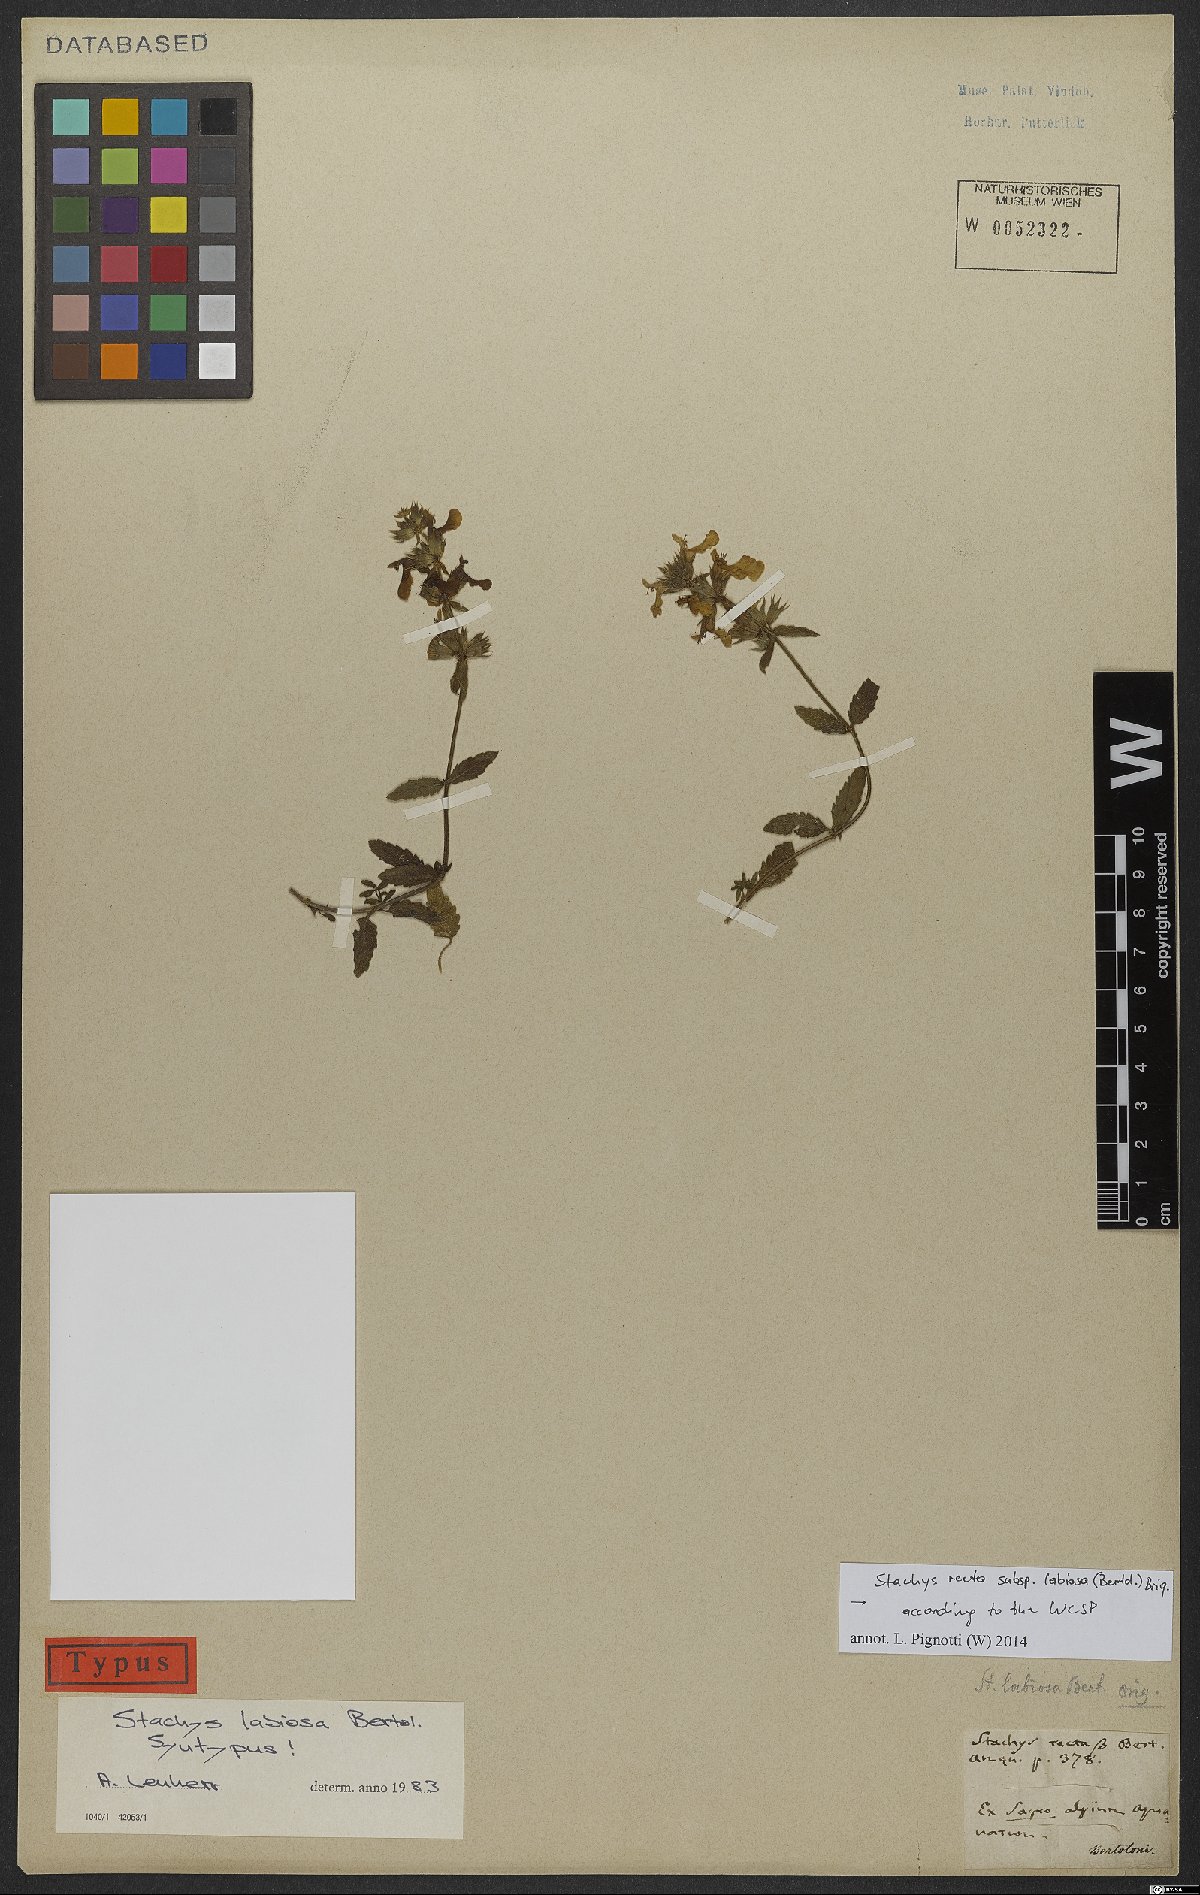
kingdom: Plantae
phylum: Tracheophyta
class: Magnoliopsida
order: Lamiales
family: Lamiaceae
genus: Stachys
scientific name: Stachys recta
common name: Perennial yellow-woundwort
